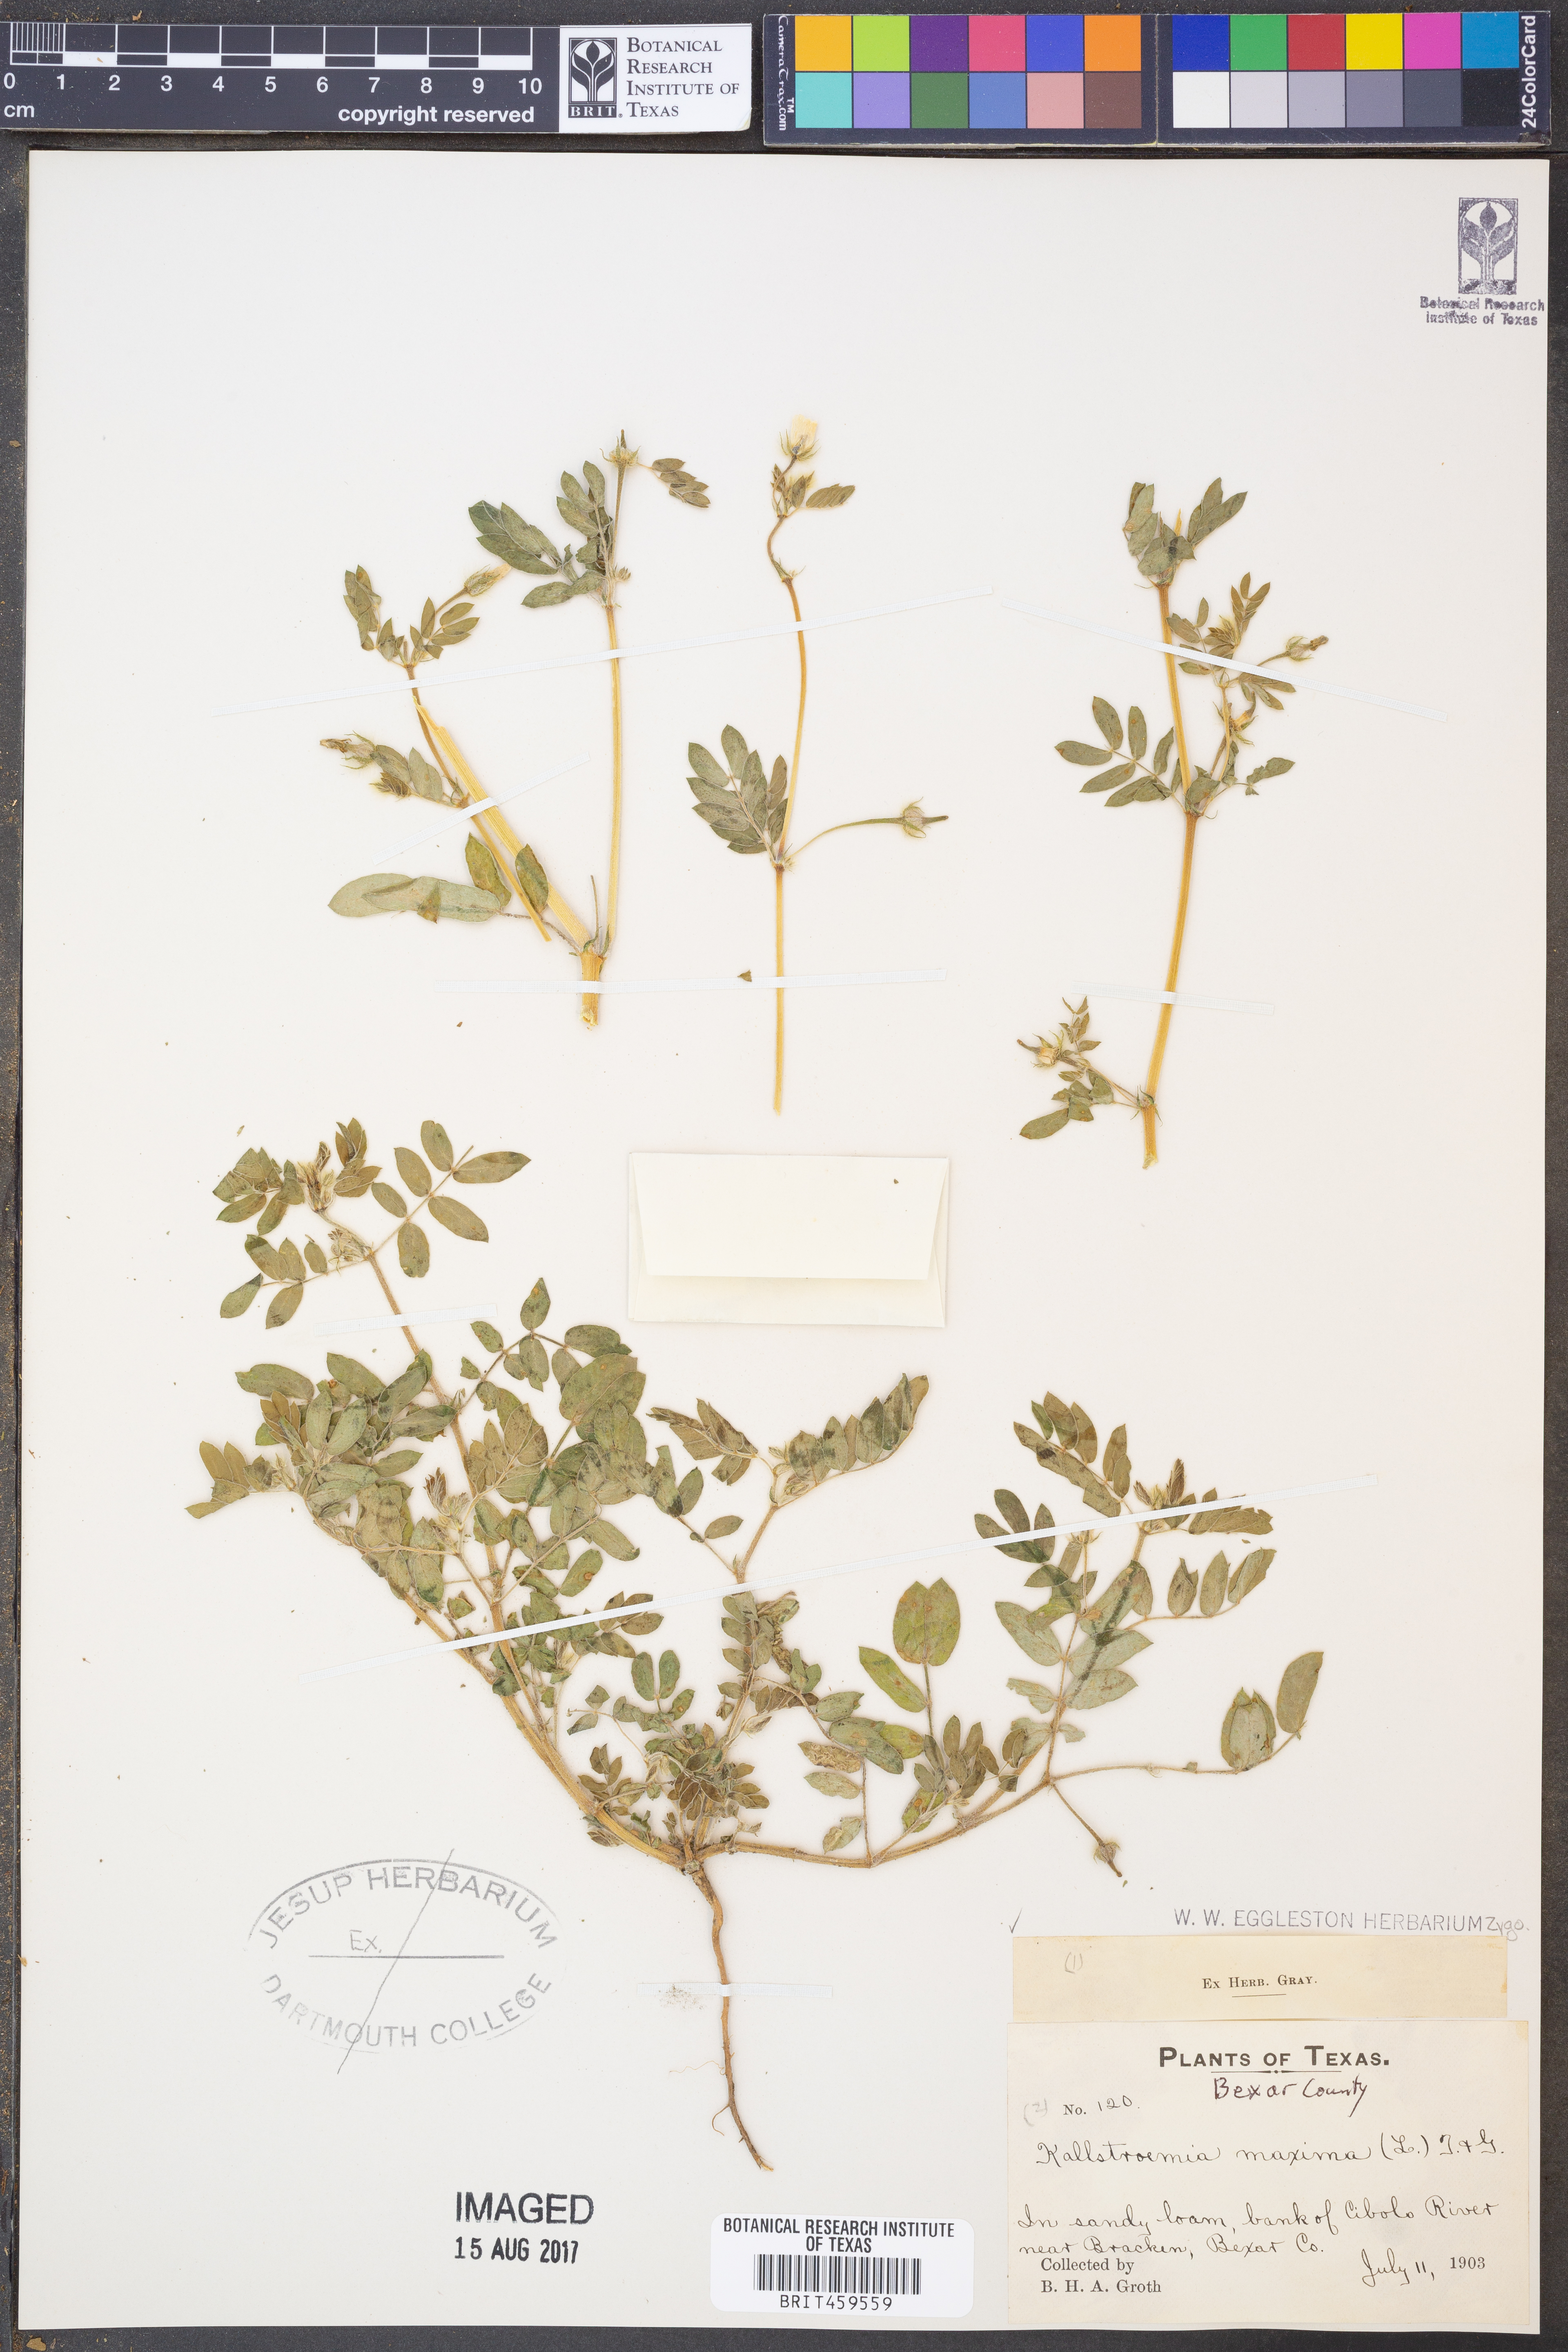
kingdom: Plantae
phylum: Tracheophyta
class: Magnoliopsida
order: Zygophyllales
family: Zygophyllaceae
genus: Kallstroemia
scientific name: Kallstroemia maxima
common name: Big caltropa
